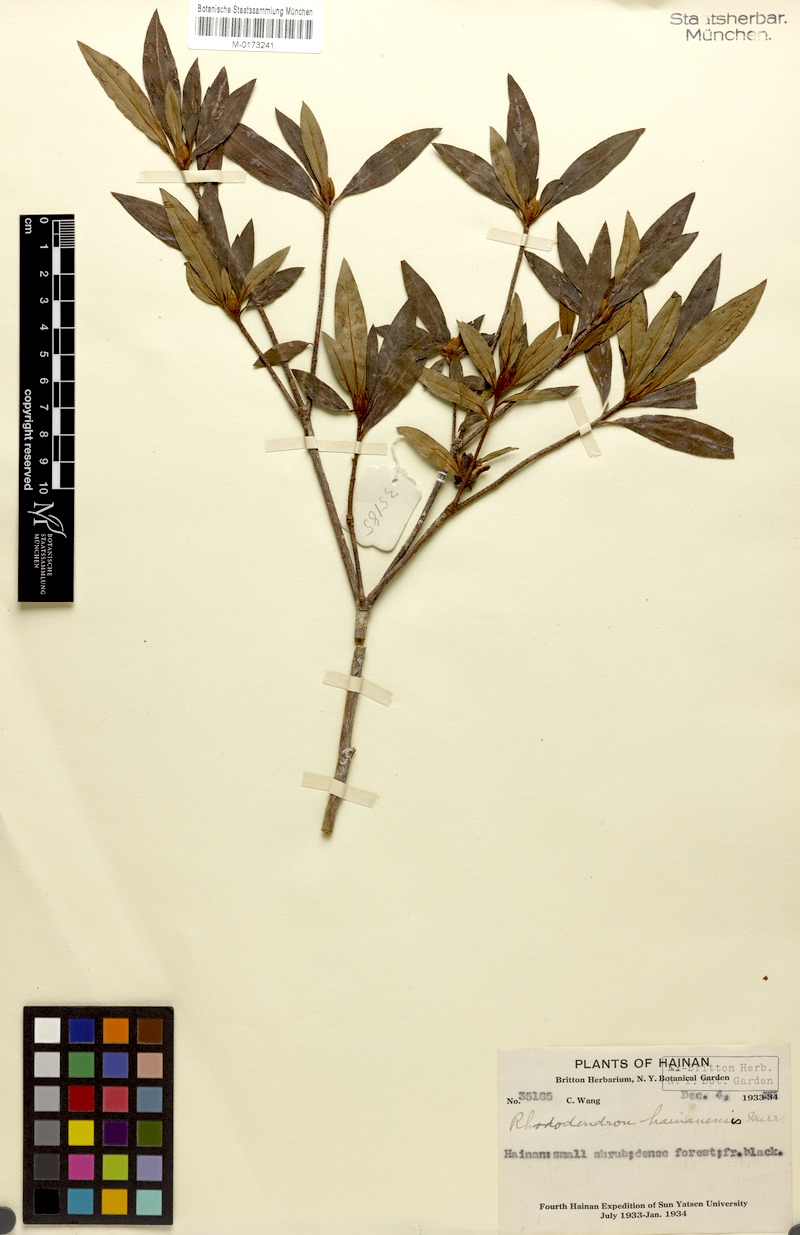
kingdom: Plantae
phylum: Tracheophyta
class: Magnoliopsida
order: Ericales
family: Ericaceae
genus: Rhododendron
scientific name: Rhododendron hainanense
